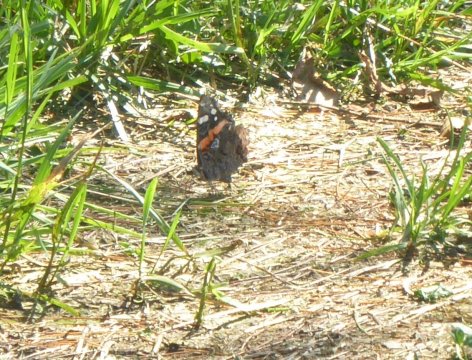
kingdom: Animalia
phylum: Arthropoda
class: Insecta
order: Lepidoptera
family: Nymphalidae
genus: Vanessa
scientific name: Vanessa atalanta
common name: Red Admiral
